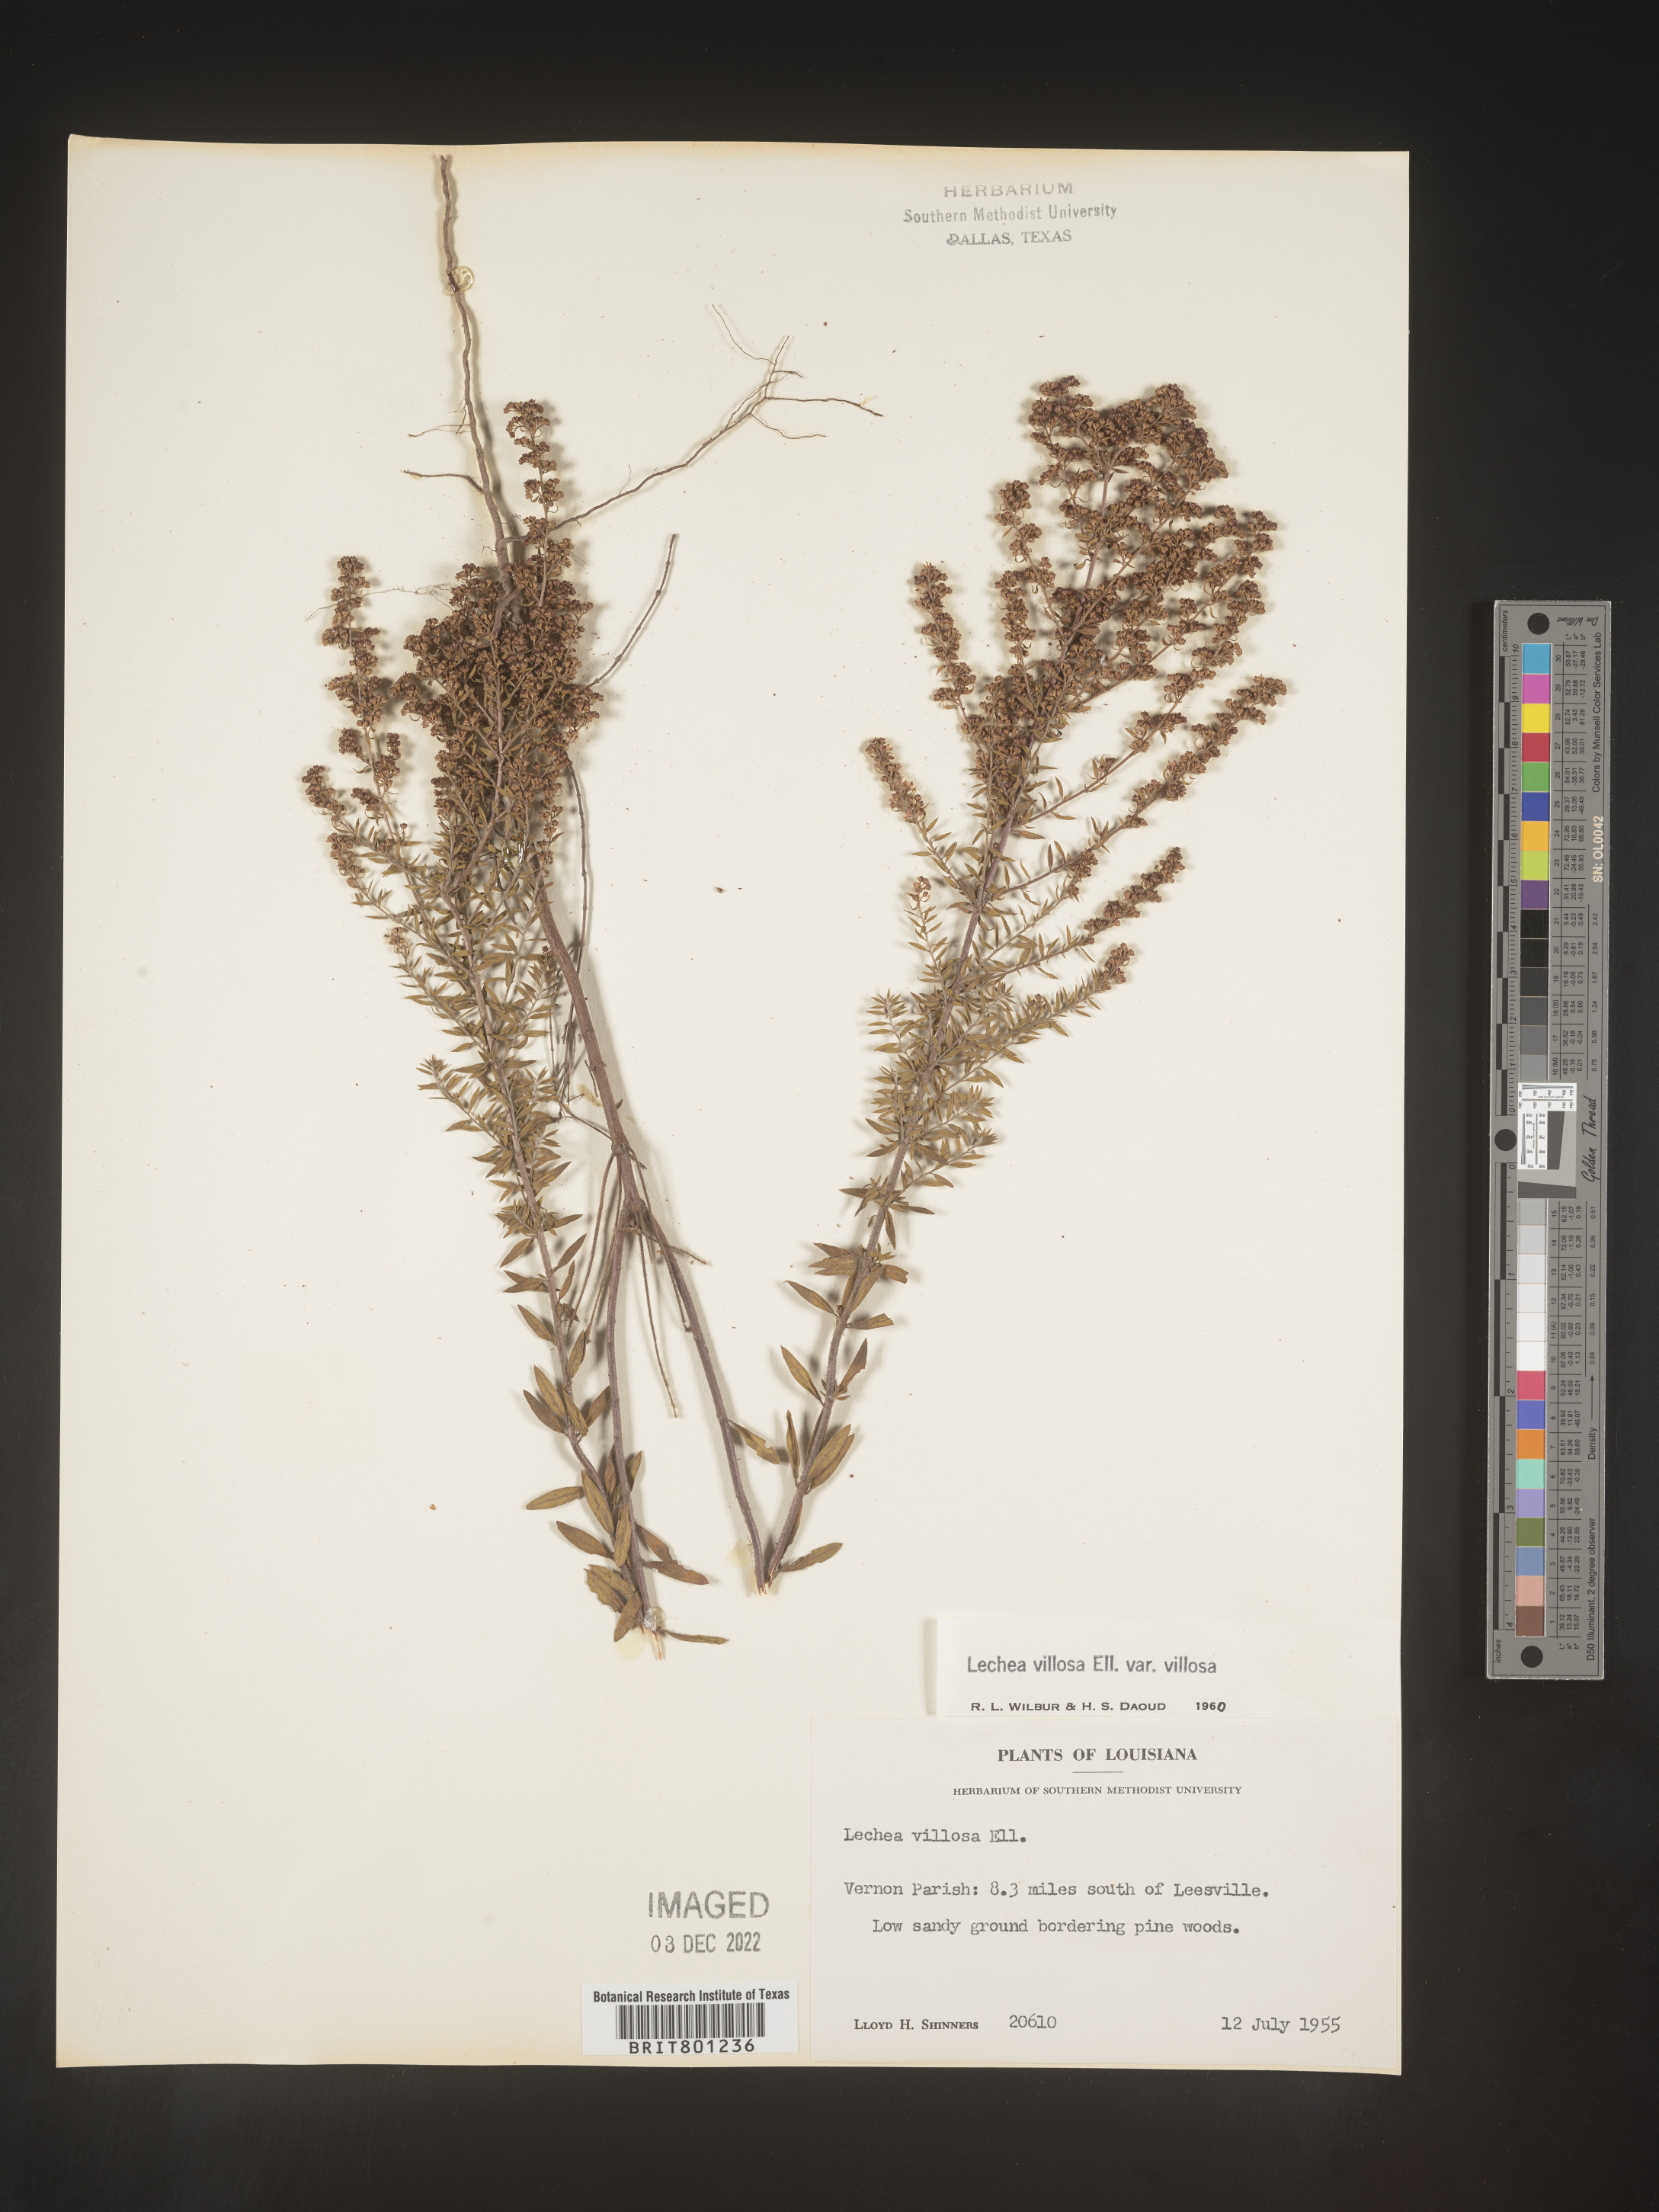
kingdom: Plantae
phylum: Tracheophyta
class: Magnoliopsida
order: Malvales
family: Cistaceae
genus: Lechea
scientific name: Lechea mucronata
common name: Hairy pinweed
